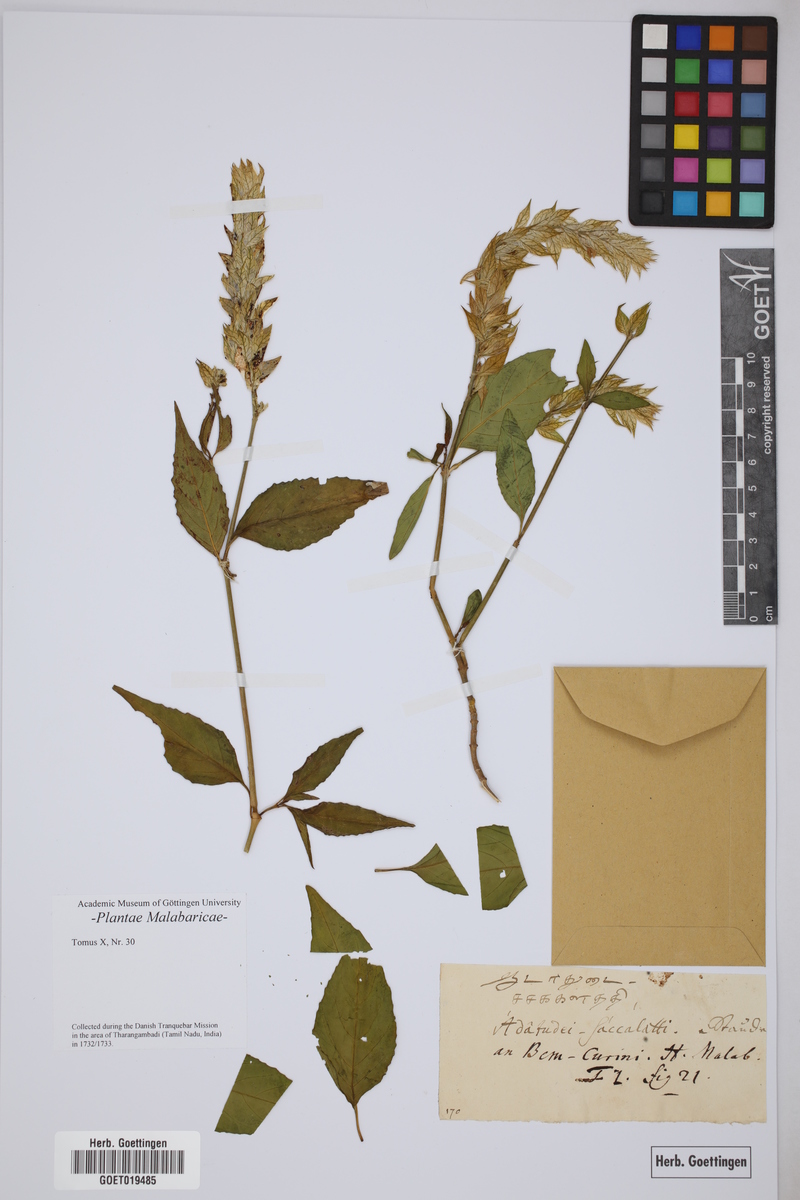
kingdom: Plantae
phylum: Tracheophyta
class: Magnoliopsida
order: Lamiales
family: Acanthaceae
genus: Nicoteba
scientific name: Nicoteba betonica
